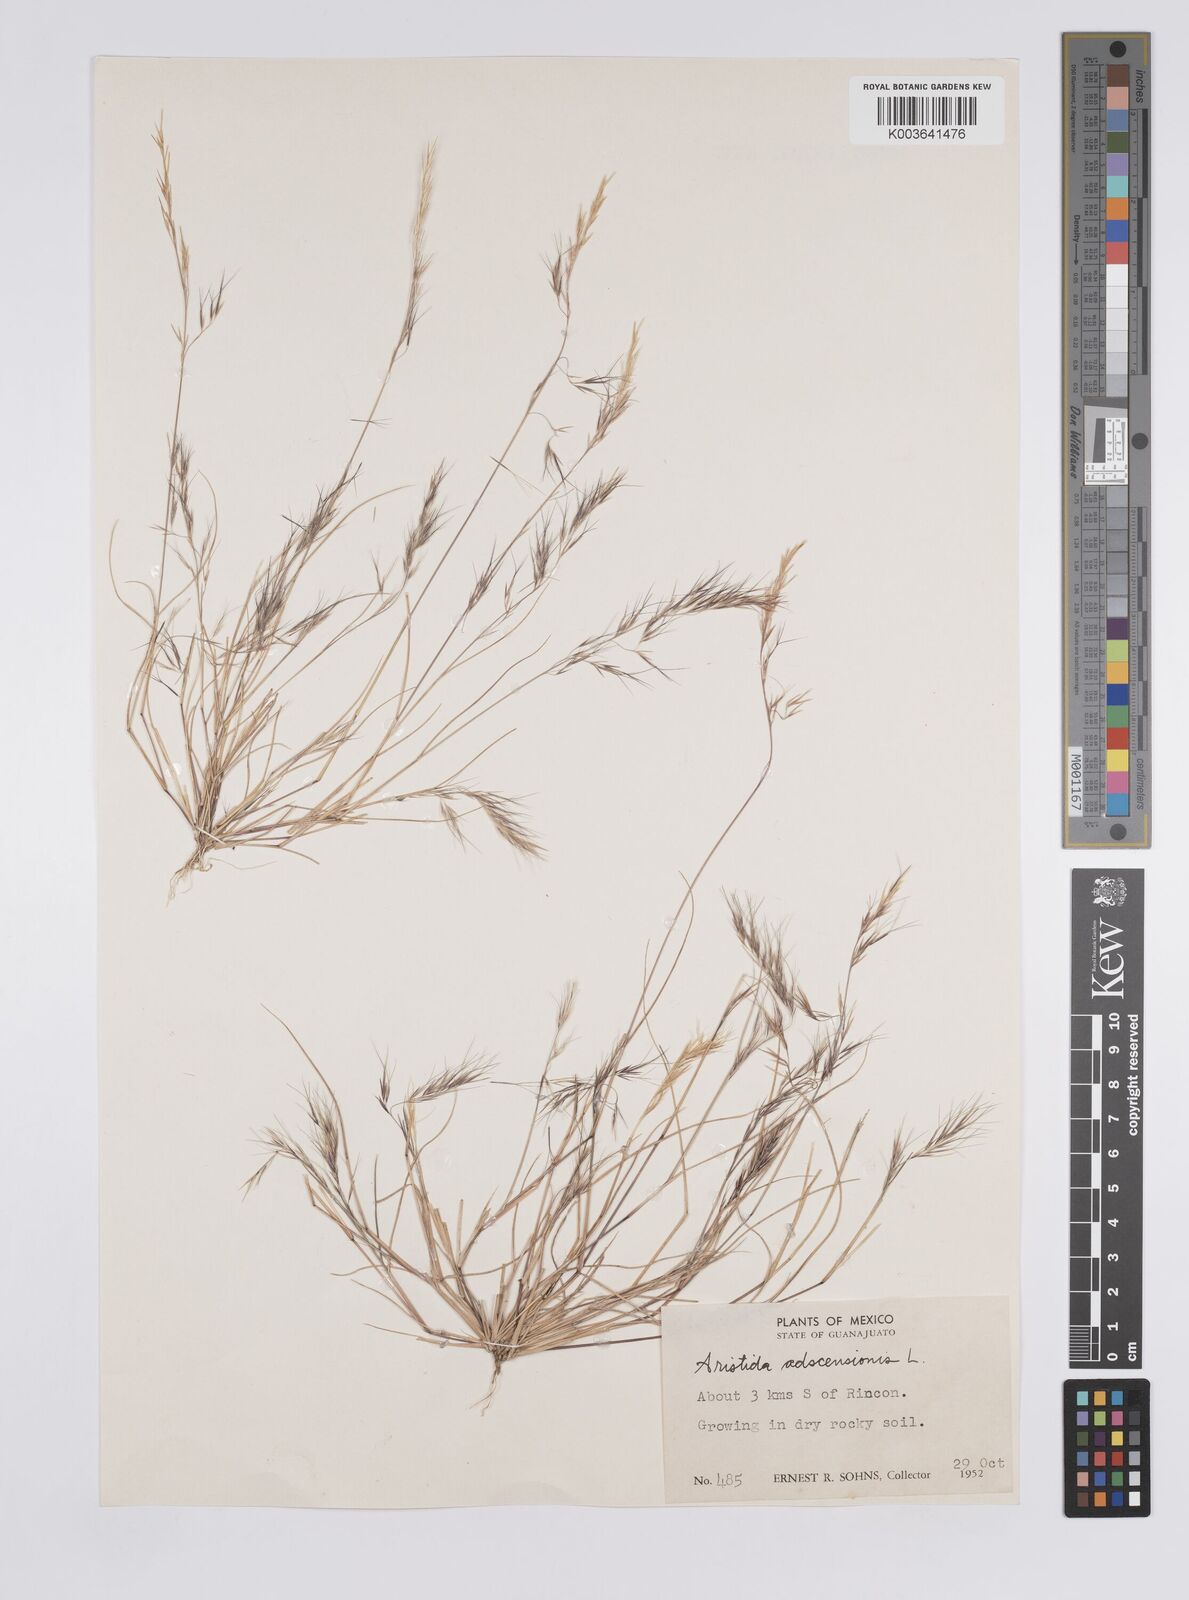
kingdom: Plantae
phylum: Tracheophyta
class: Liliopsida
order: Poales
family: Poaceae
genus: Aristida
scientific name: Aristida adscensionis
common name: Sixweeks threeawn
